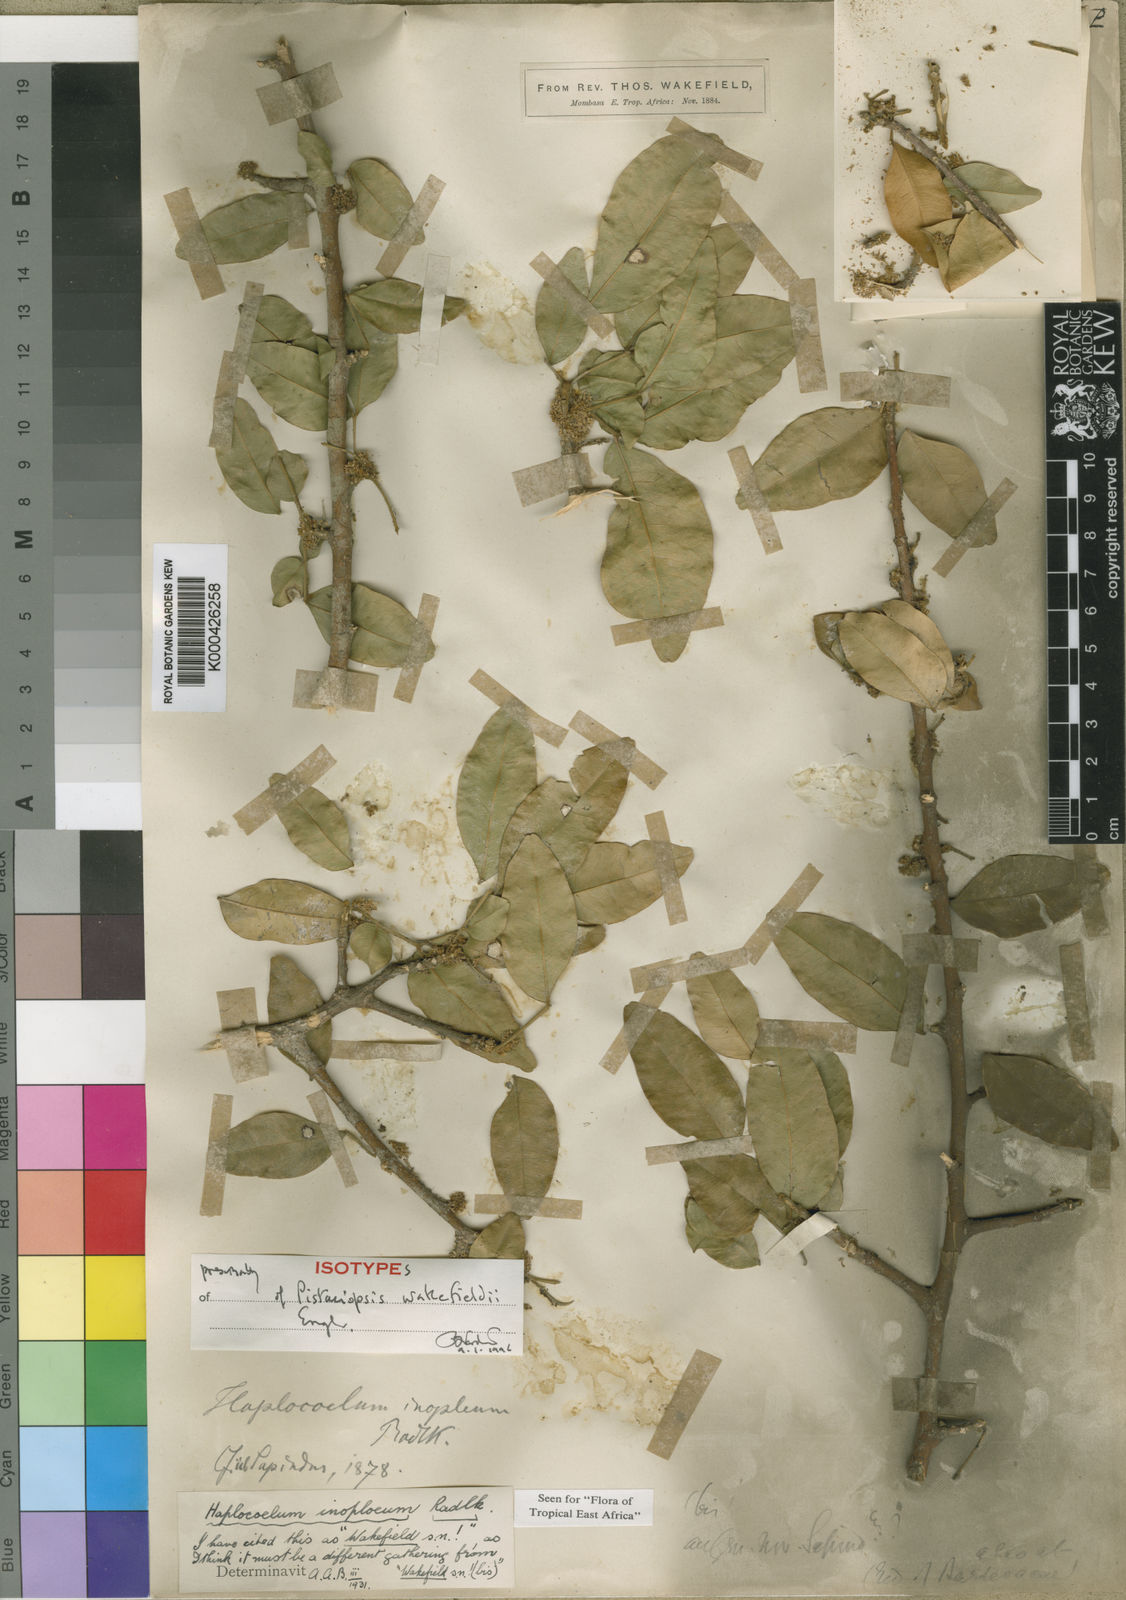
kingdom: Plantae
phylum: Tracheophyta
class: Magnoliopsida
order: Sapindales
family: Sapindaceae
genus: Haplocoelum
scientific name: Haplocoelum
